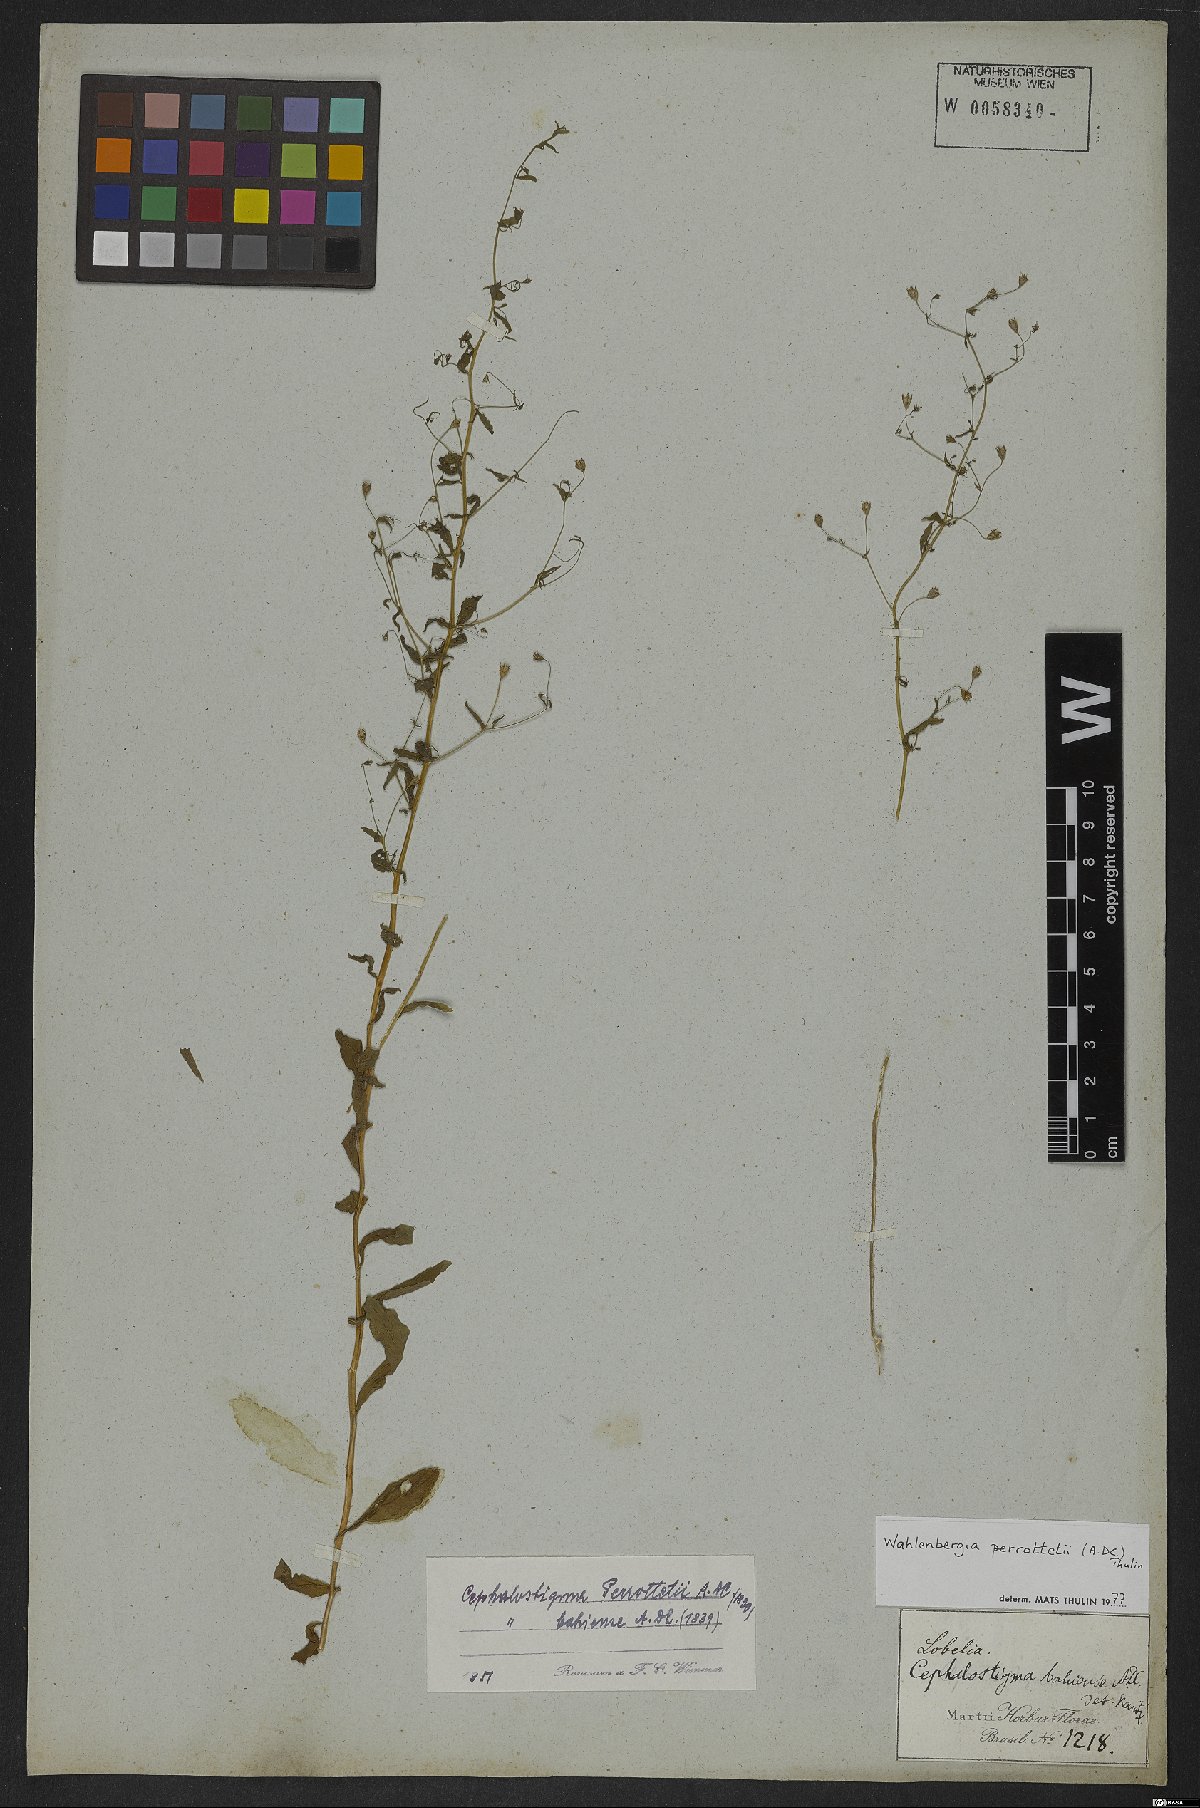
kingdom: Plantae
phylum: Tracheophyta
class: Magnoliopsida
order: Asterales
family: Campanulaceae
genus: Wahlenbergia
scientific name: Wahlenbergia perrottetii
